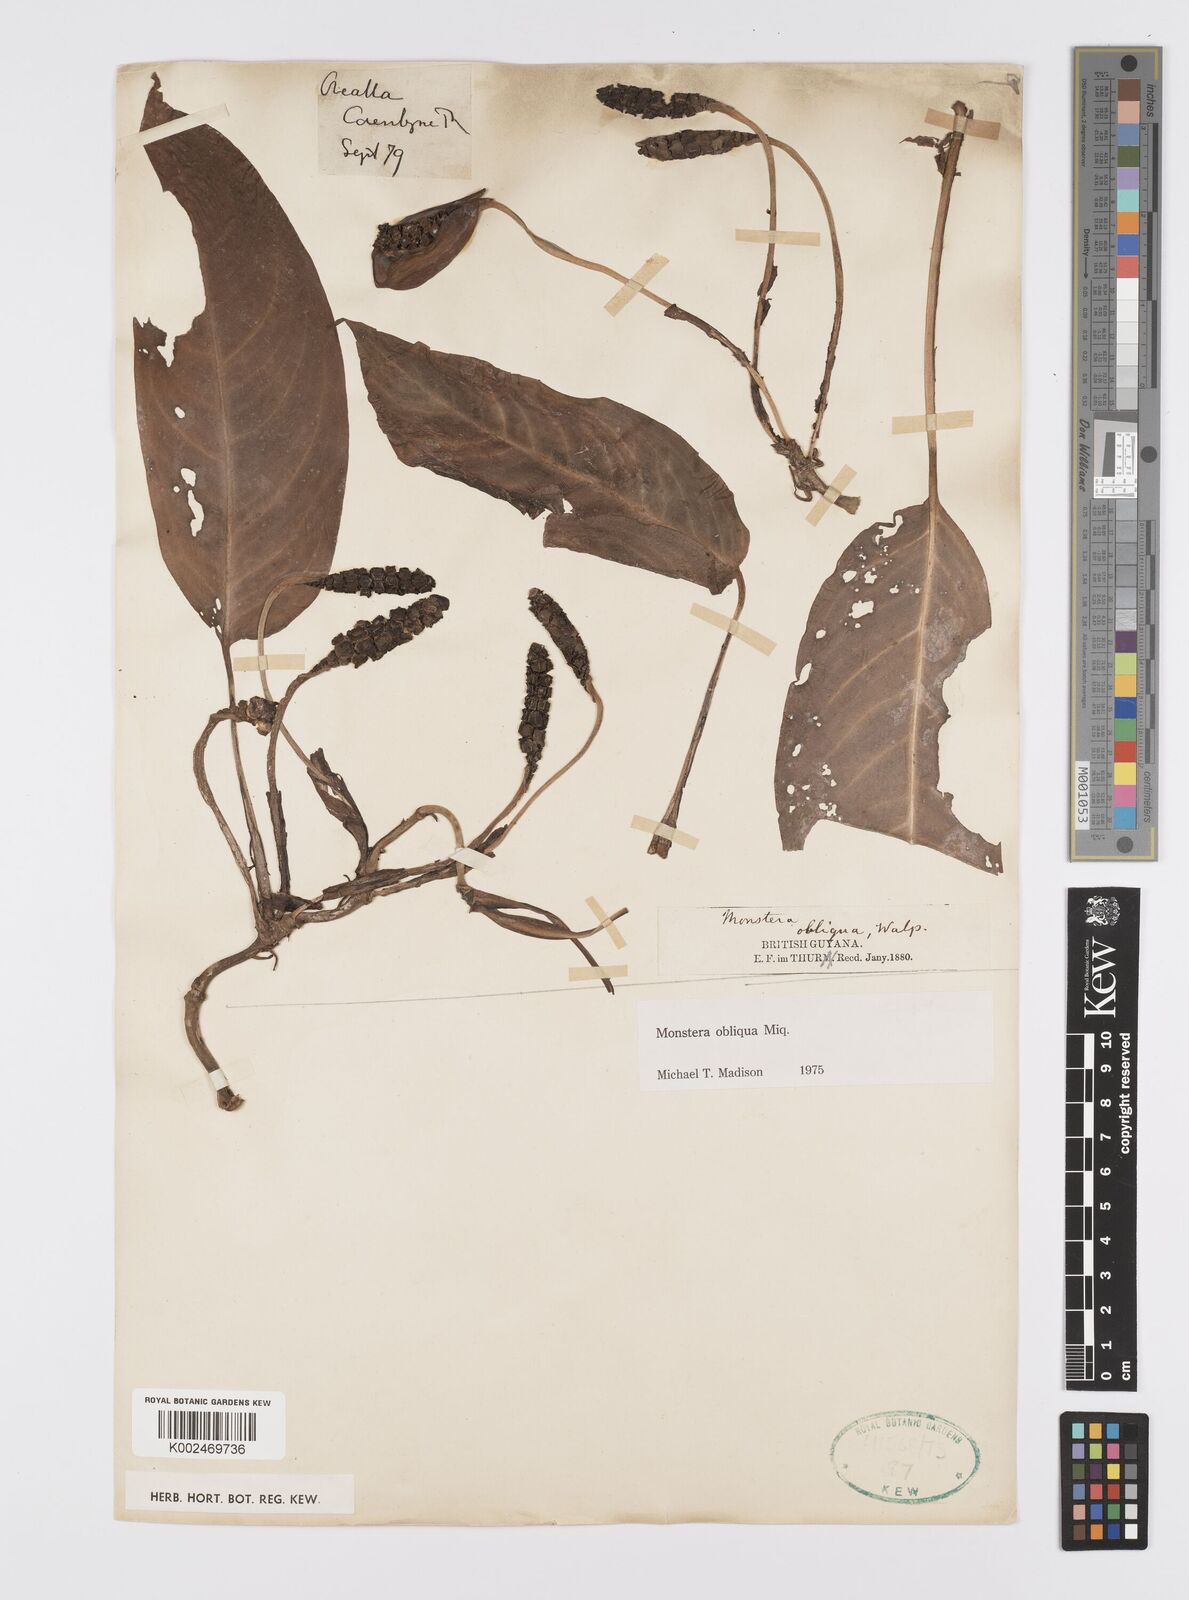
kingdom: Plantae
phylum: Tracheophyta
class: Liliopsida
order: Alismatales
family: Araceae
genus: Monstera
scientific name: Monstera obliqua
